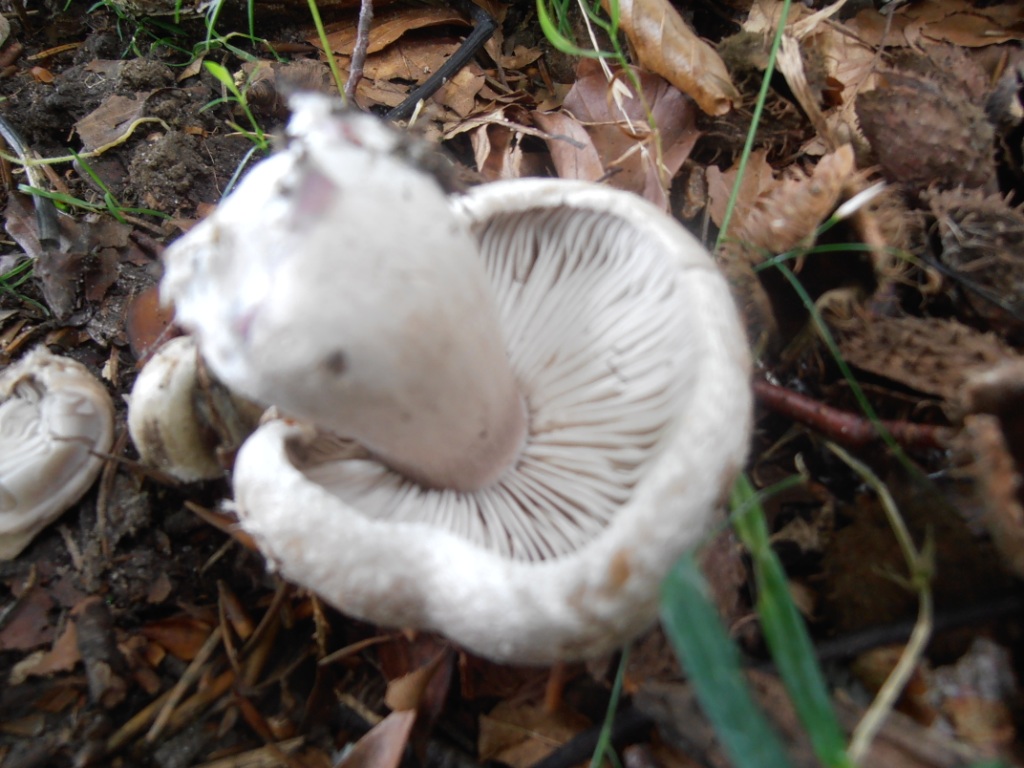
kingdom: Fungi
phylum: Basidiomycota
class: Agaricomycetes
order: Agaricales
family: Tricholomataceae
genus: Tricholoma
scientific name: Tricholoma basirubens
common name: rødfodet ridderhat
